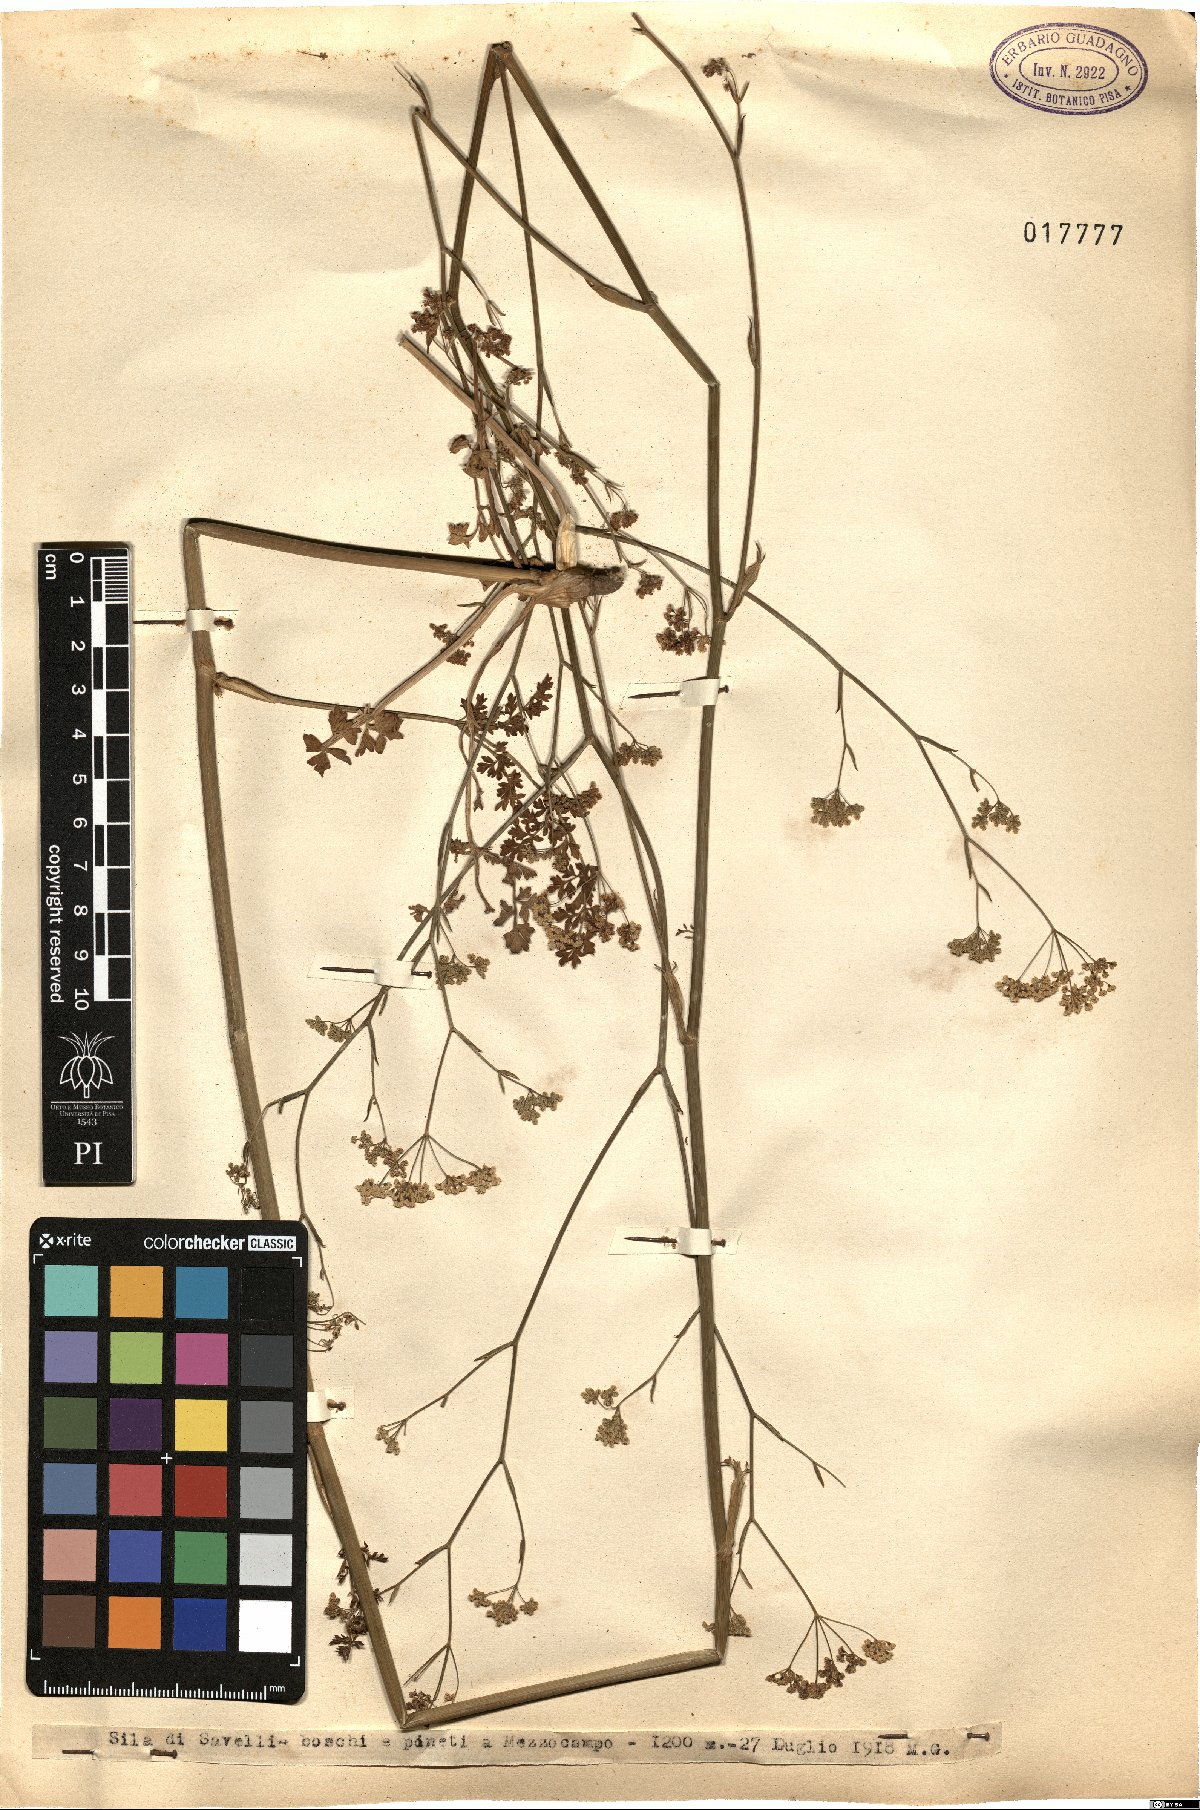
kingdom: Plantae
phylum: Tracheophyta
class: Magnoliopsida
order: Apiales
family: Apiaceae
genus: Pimpinella
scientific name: Pimpinella
